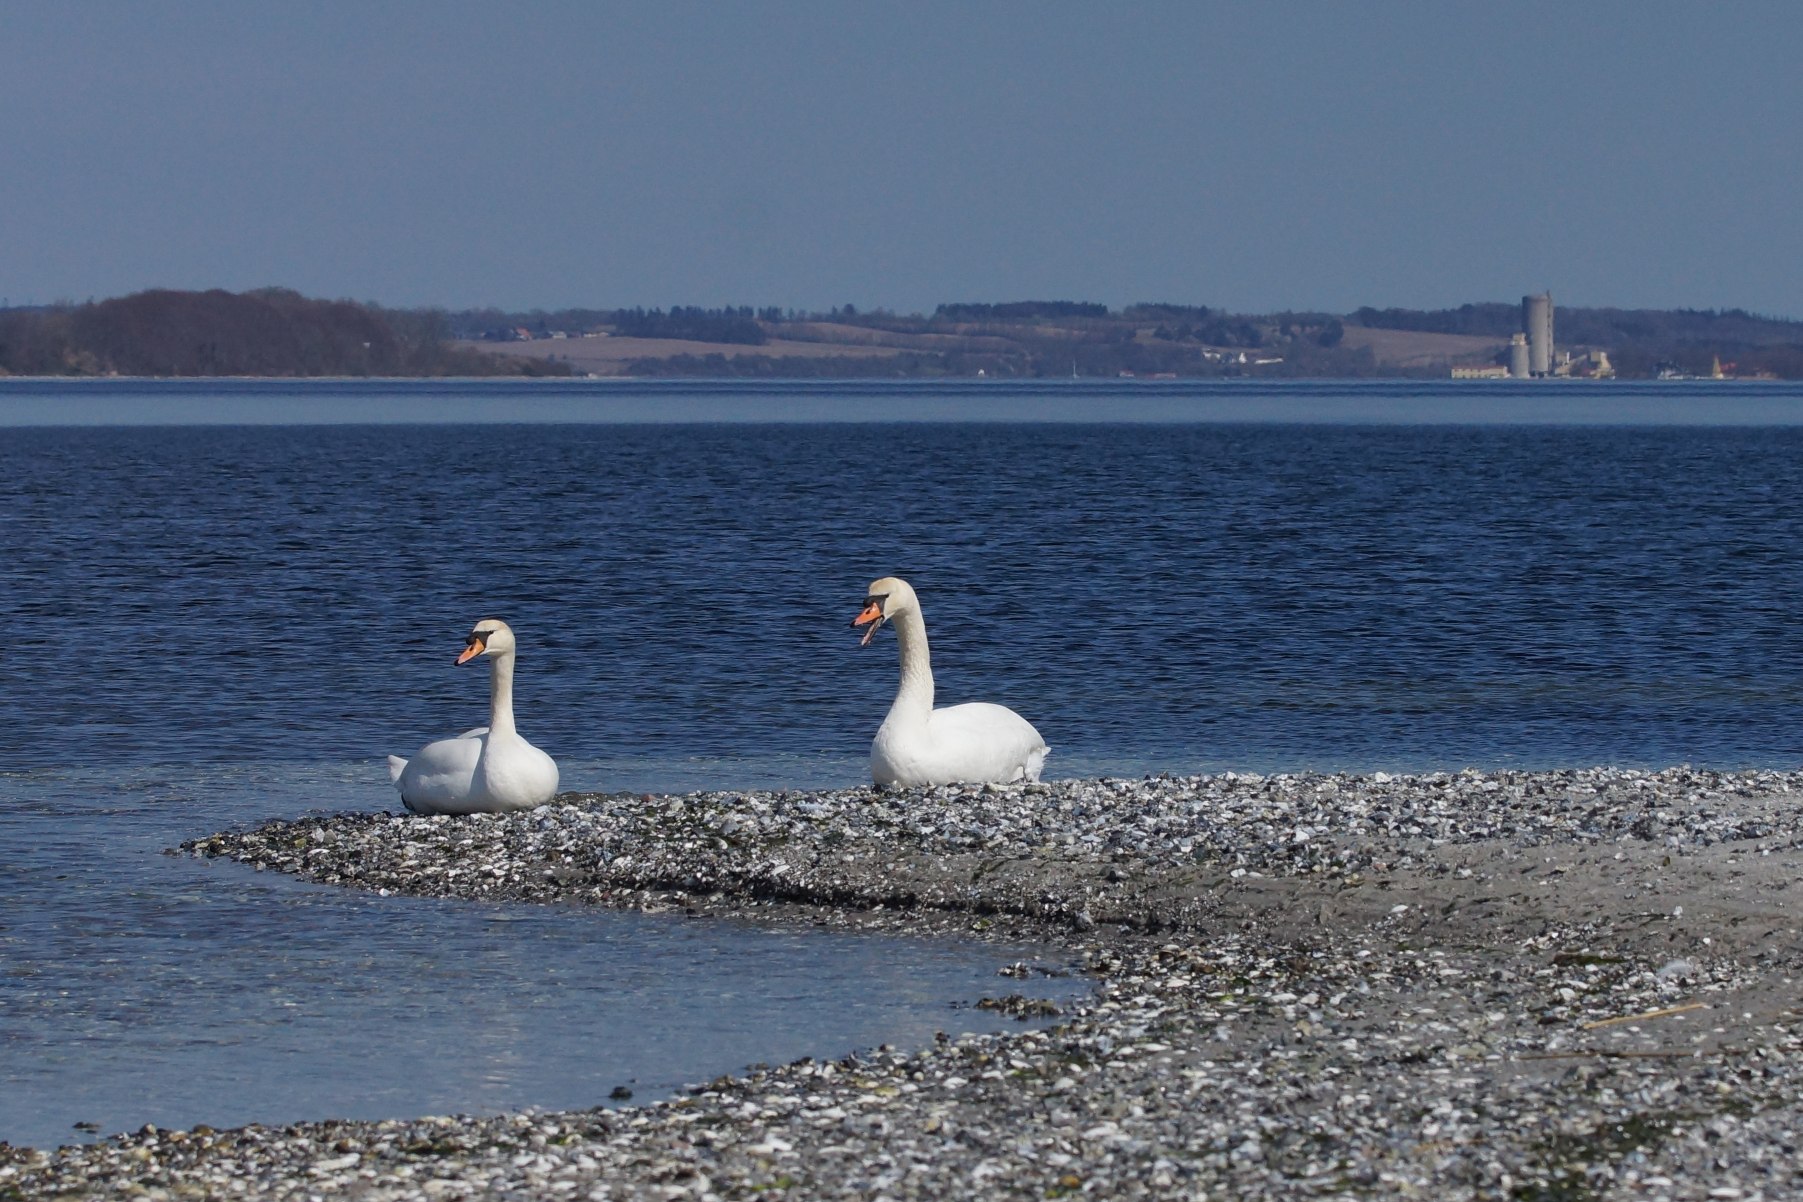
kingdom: Animalia
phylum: Chordata
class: Aves
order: Anseriformes
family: Anatidae
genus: Cygnus
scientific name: Cygnus olor
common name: Knopsvane
